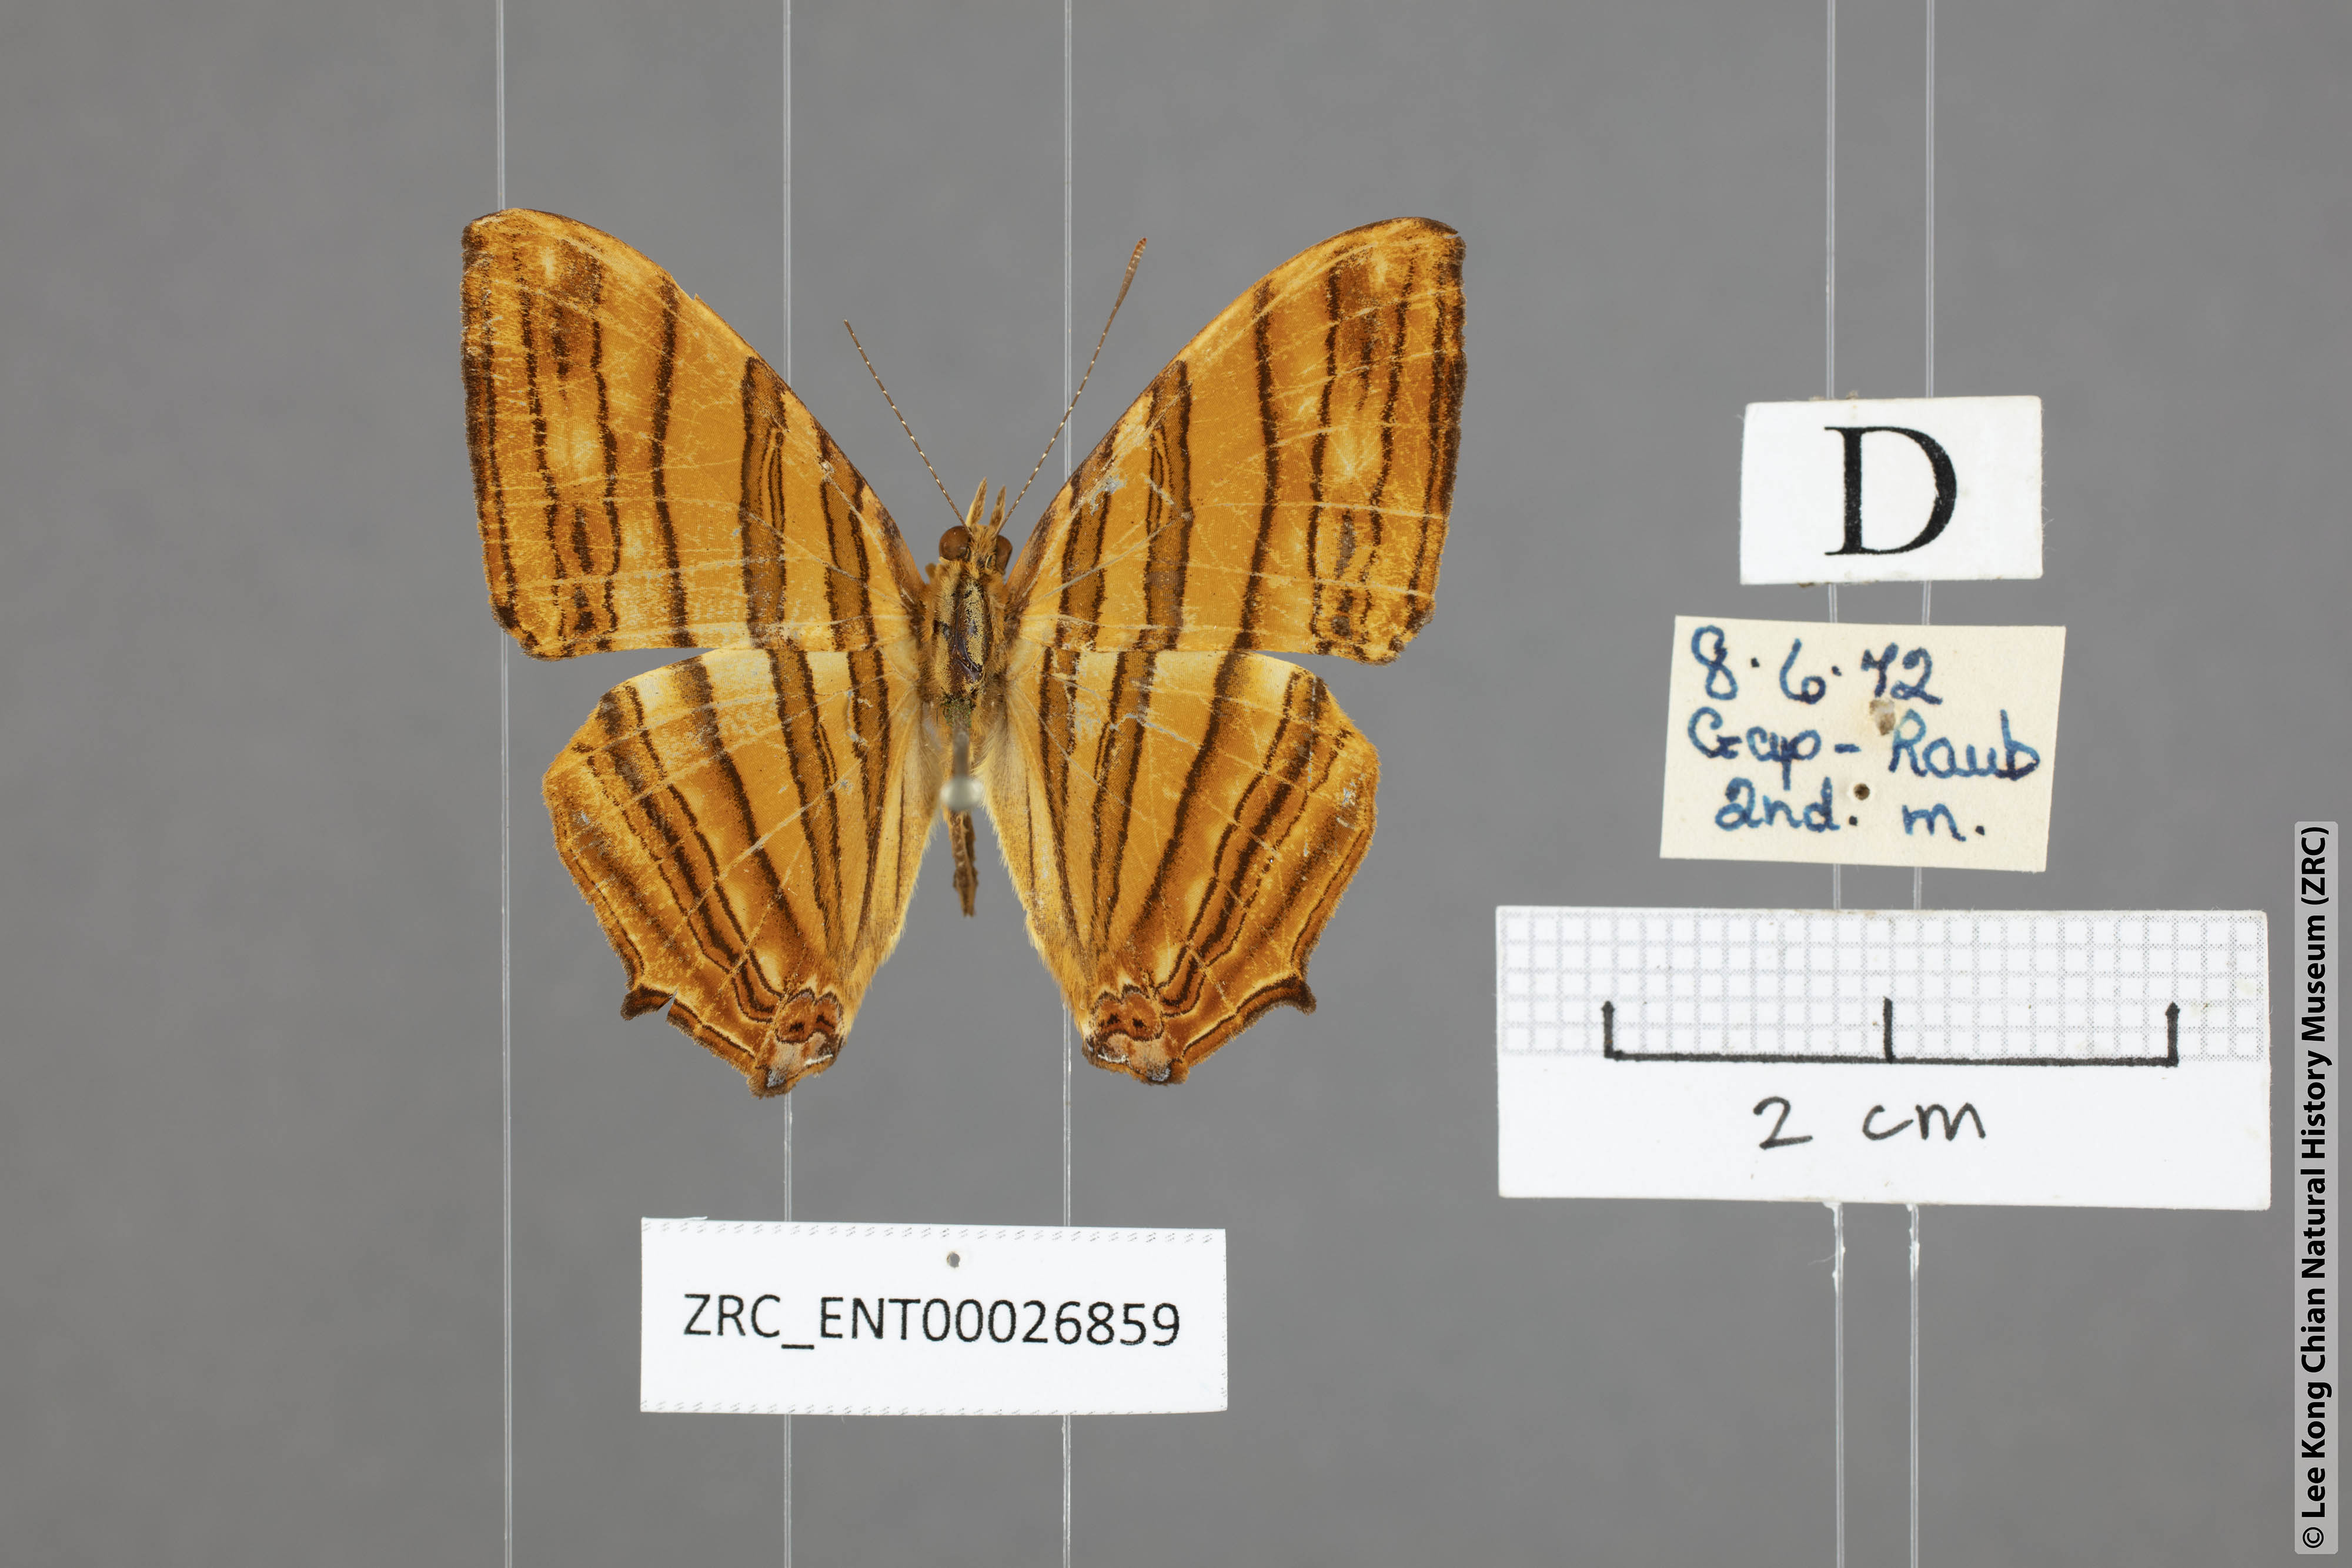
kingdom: Animalia
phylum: Arthropoda
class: Insecta
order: Lepidoptera
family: Nymphalidae
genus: Chersonesia
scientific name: Chersonesia risa
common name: Common maplet
